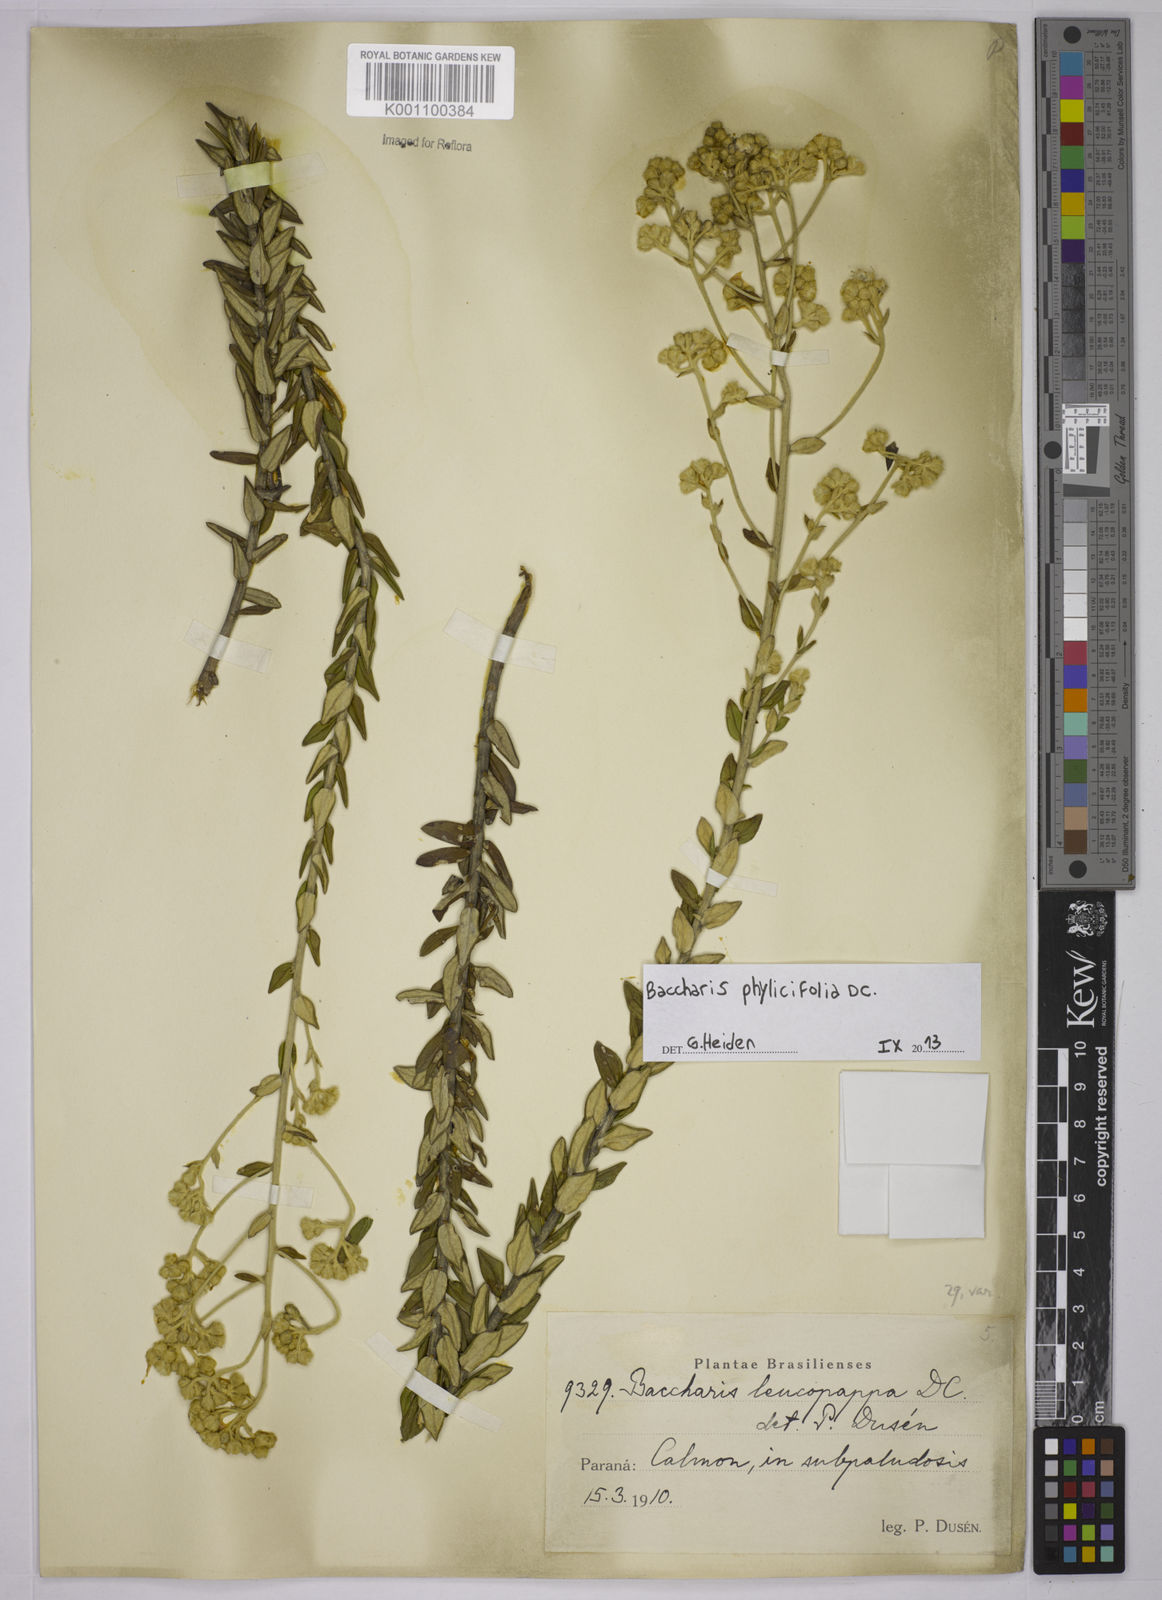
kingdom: Plantae
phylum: Tracheophyta
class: Magnoliopsida
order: Asterales
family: Asteraceae
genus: Baccharis
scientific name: Baccharis leucopappa
